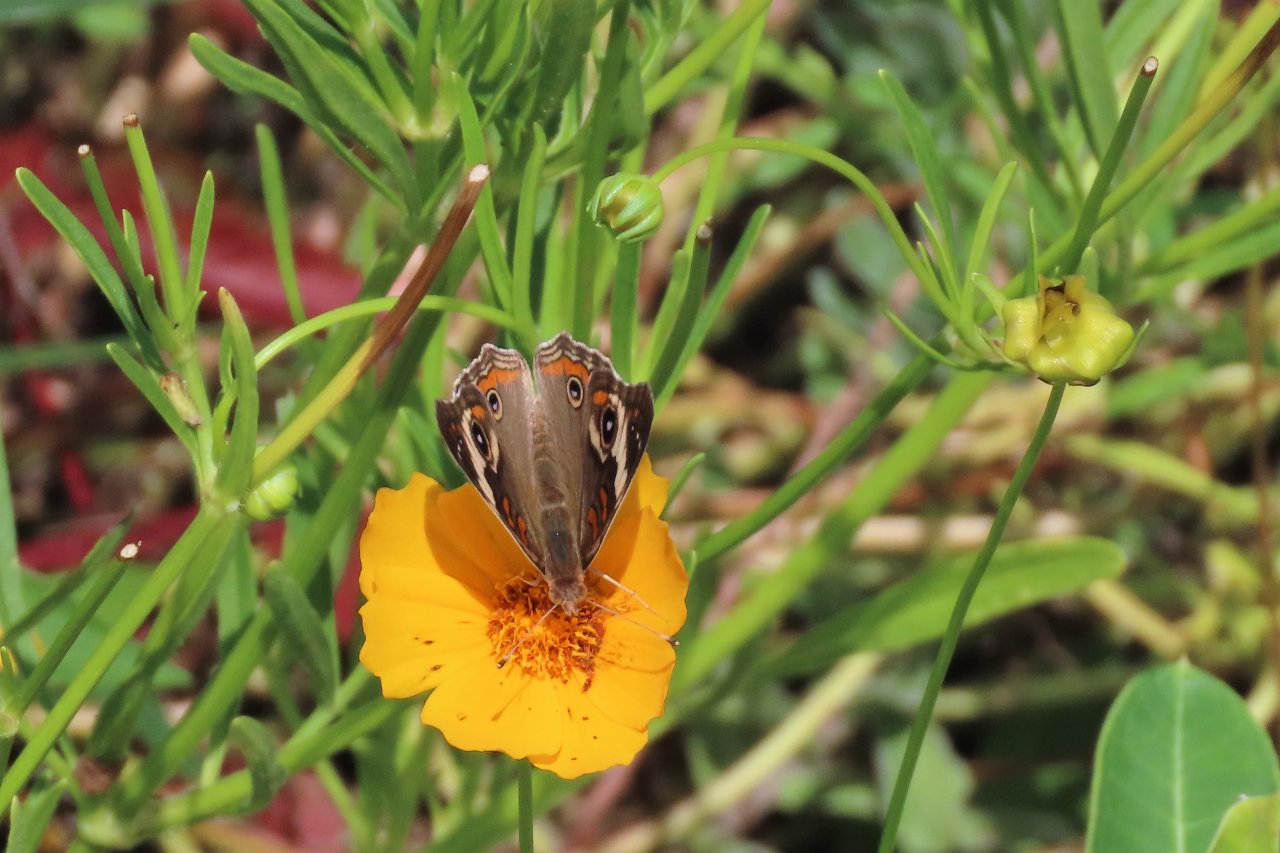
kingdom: Animalia
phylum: Arthropoda
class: Insecta
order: Lepidoptera
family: Nymphalidae
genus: Junonia
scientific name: Junonia coenia
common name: Common Buckeye
